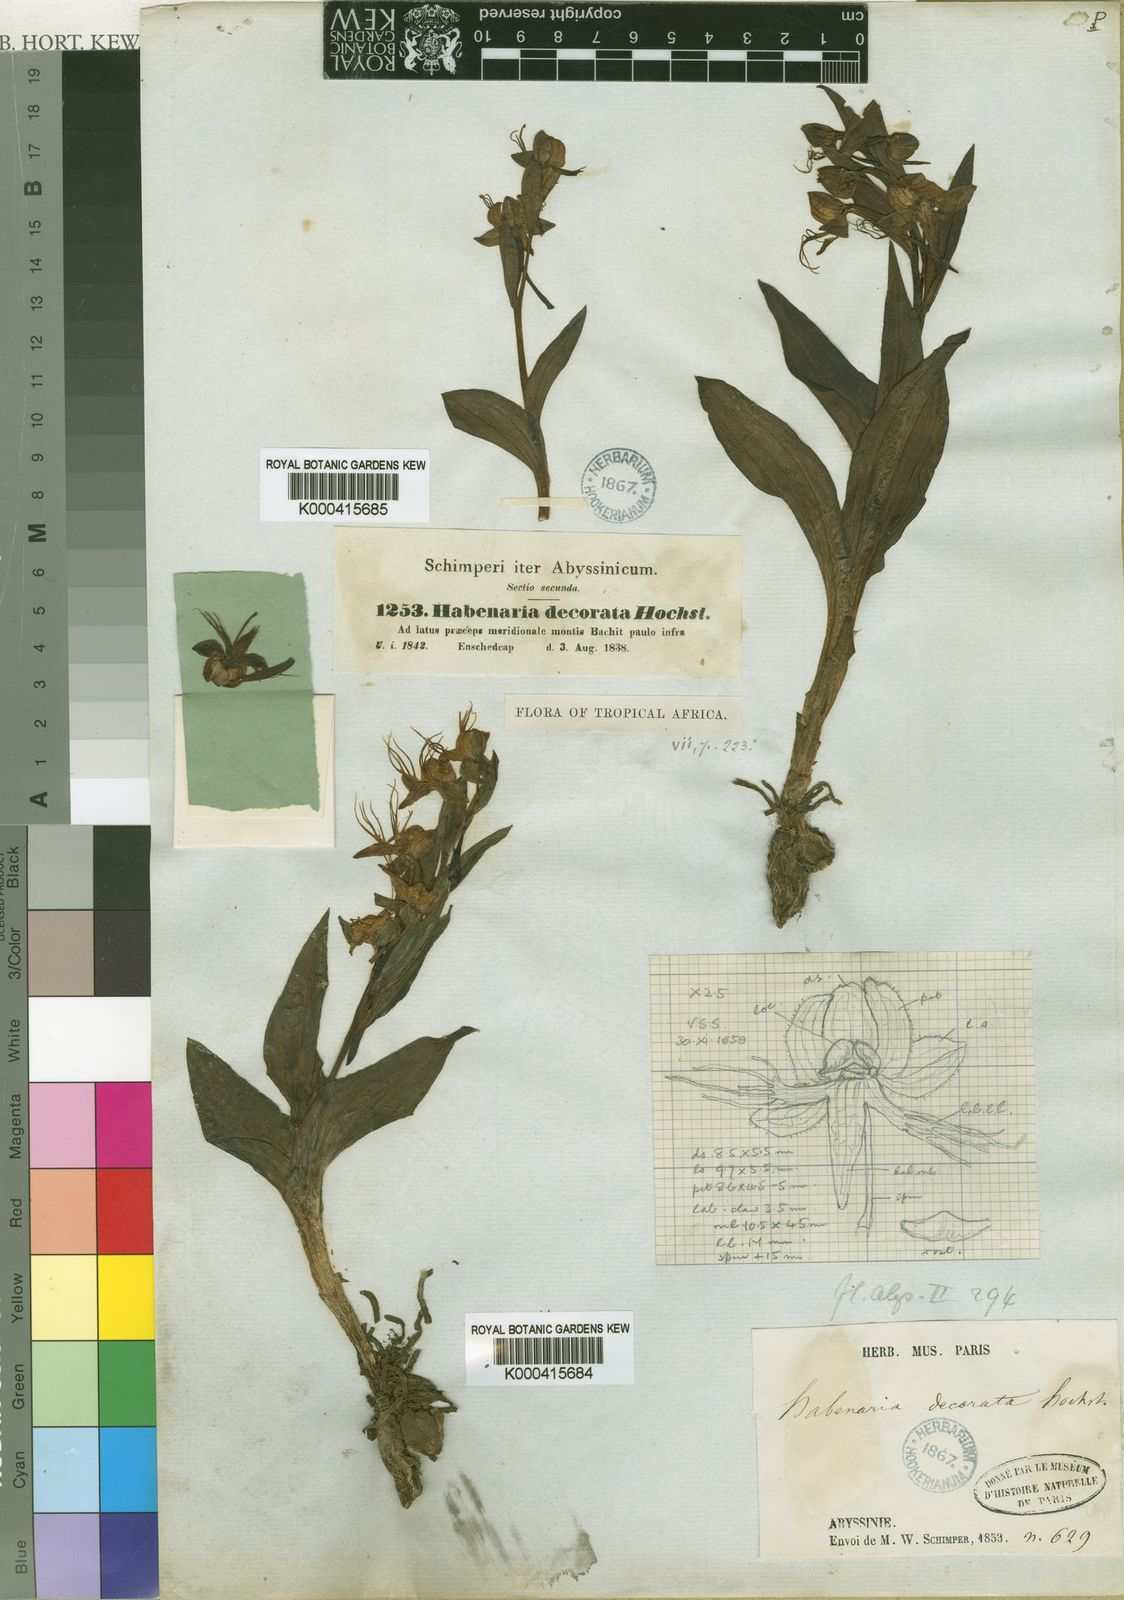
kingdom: Plantae
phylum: Tracheophyta
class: Liliopsida
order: Asparagales
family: Orchidaceae
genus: Habenaria
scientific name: Habenaria decorata
